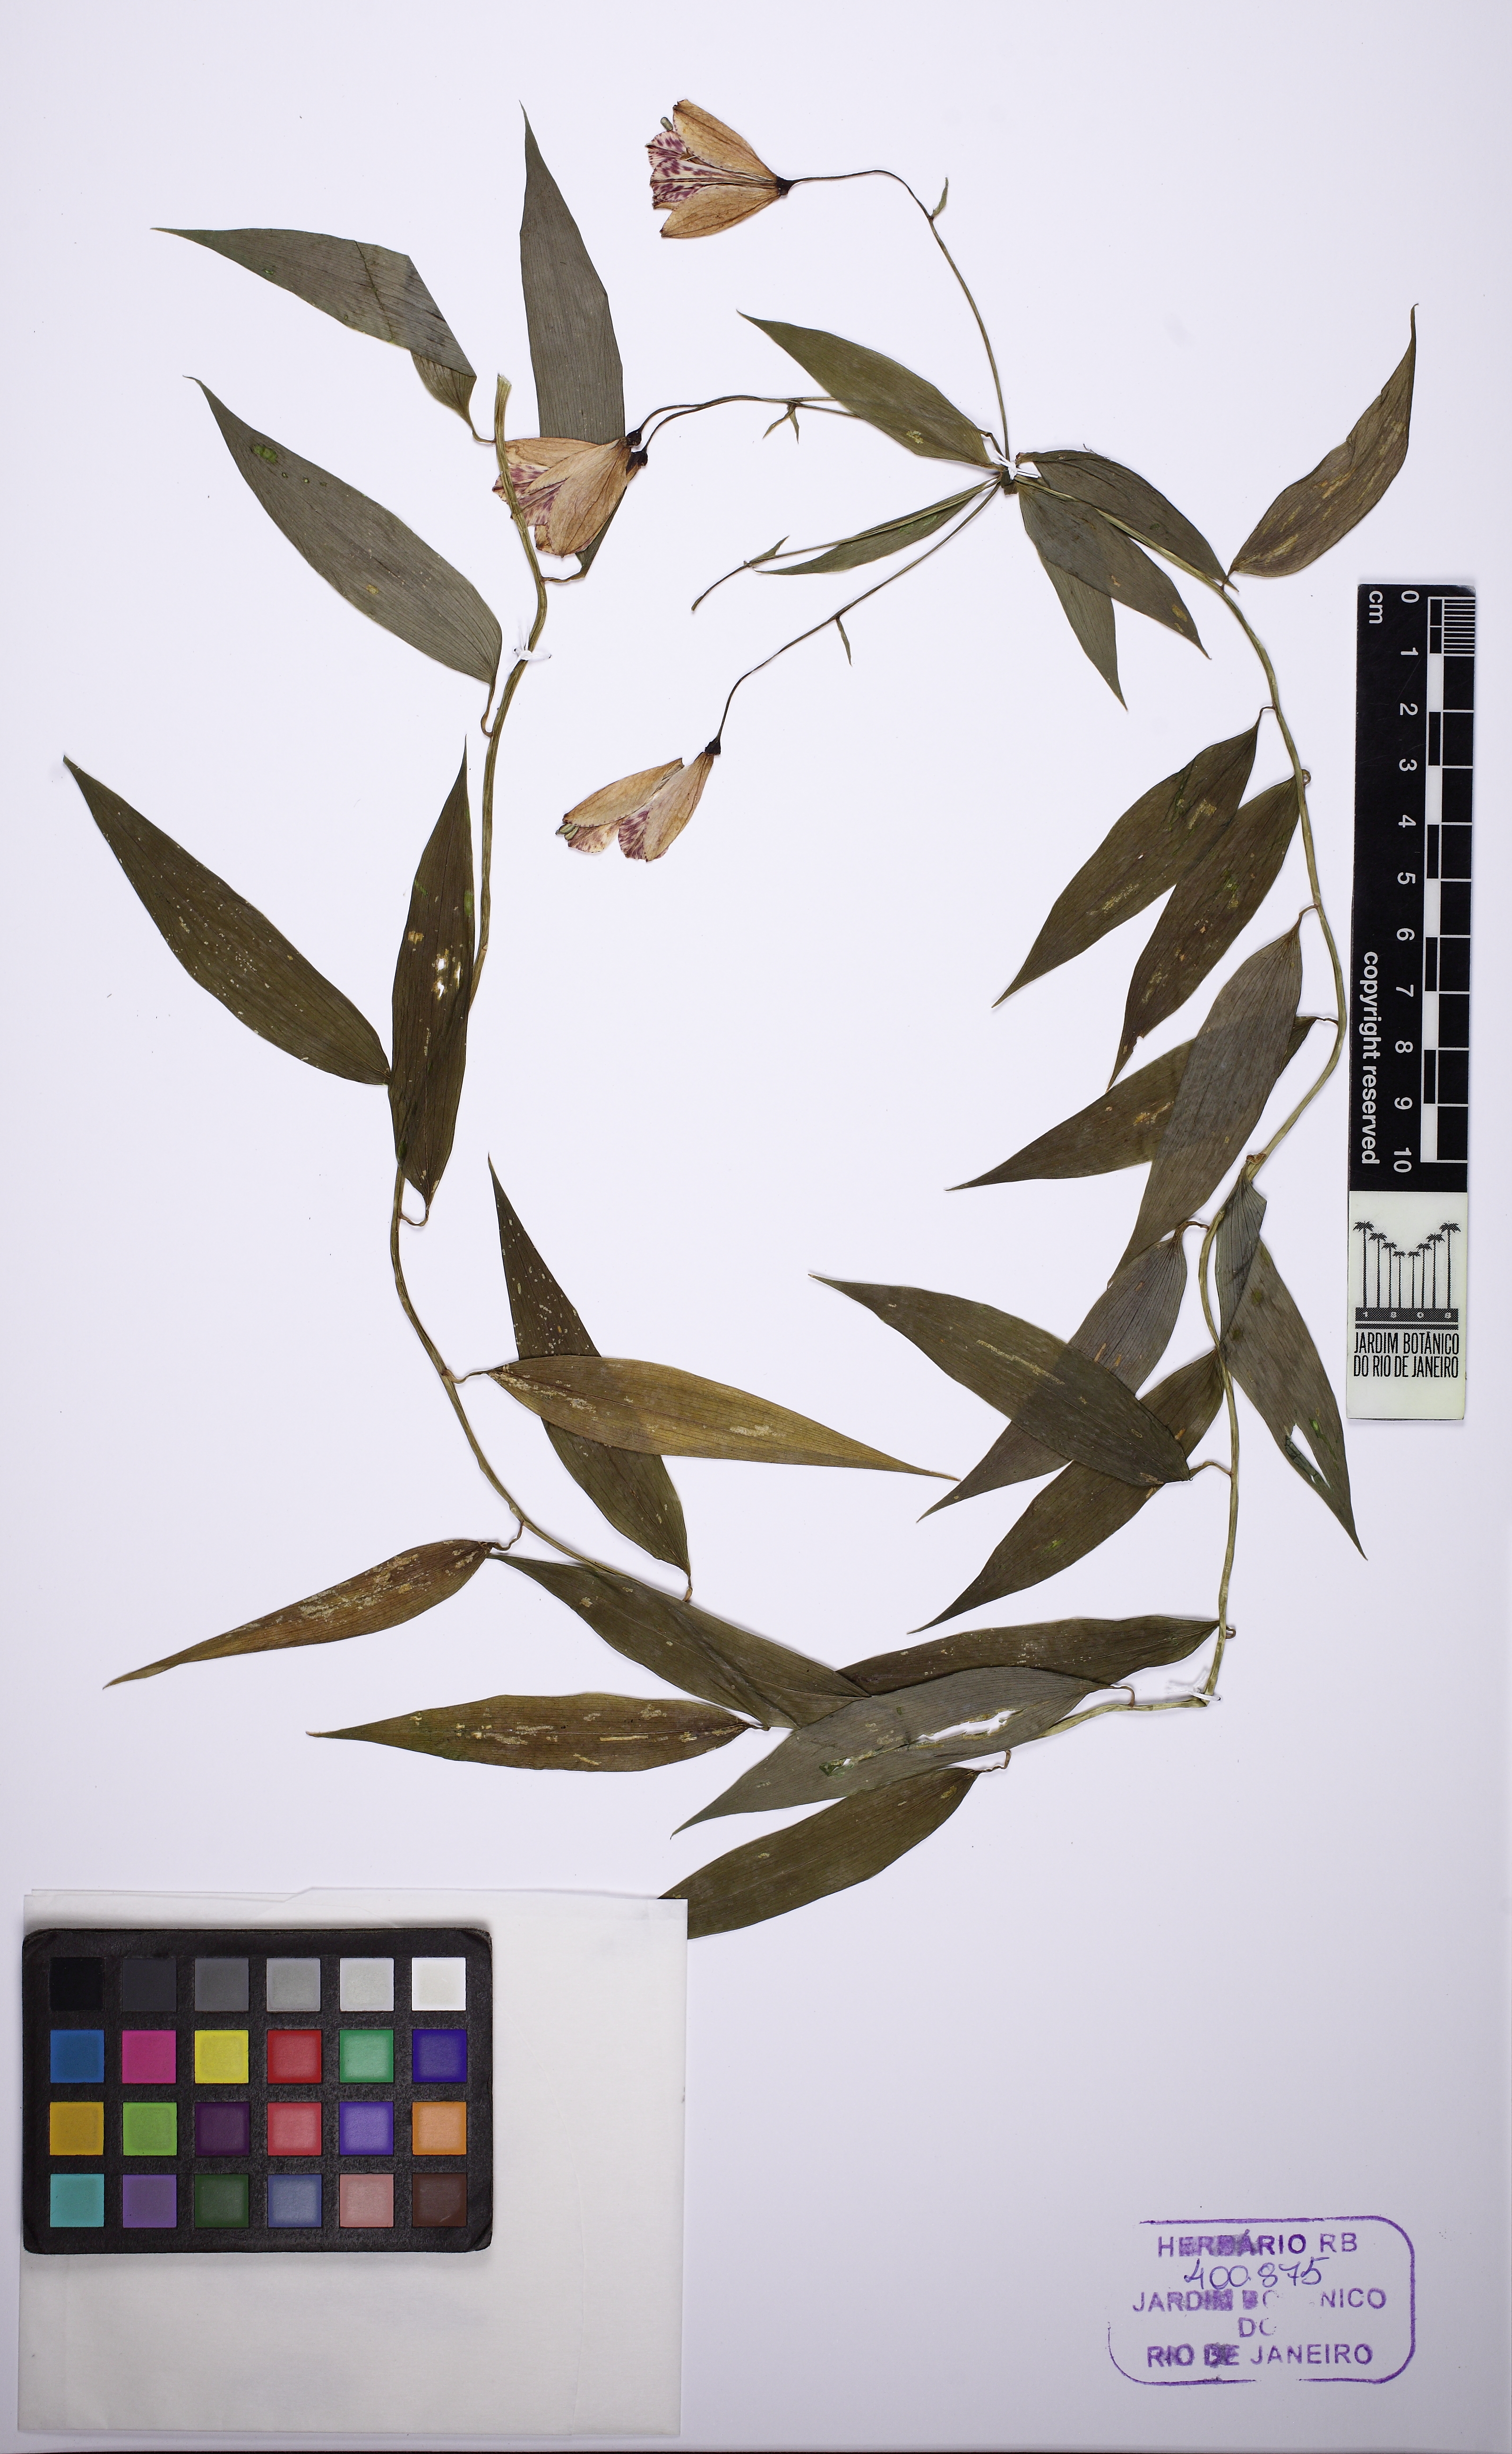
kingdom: Plantae
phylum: Tracheophyta
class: Liliopsida
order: Liliales
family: Alstroemeriaceae
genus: Bomarea
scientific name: Bomarea edulis
